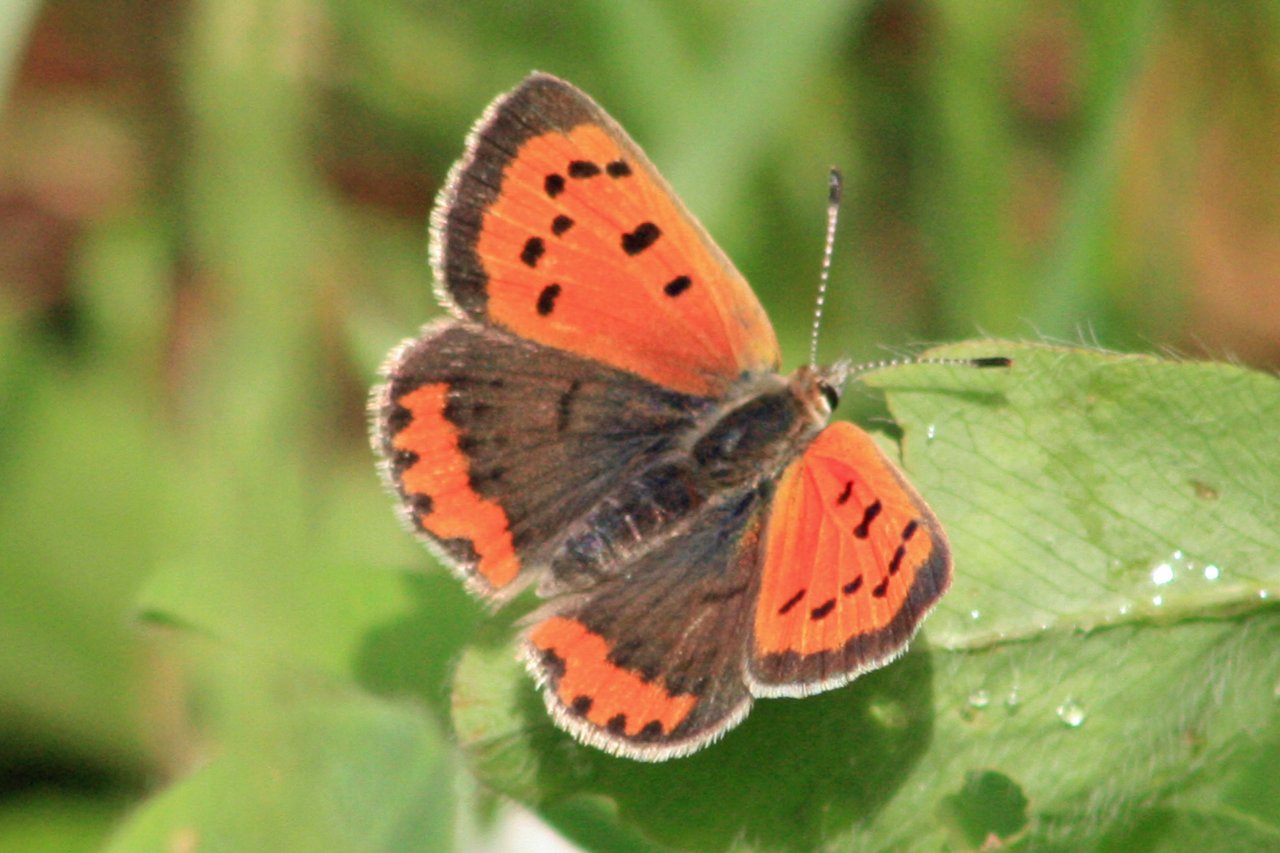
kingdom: Animalia
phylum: Arthropoda
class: Insecta
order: Lepidoptera
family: Lycaenidae
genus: Lycaena
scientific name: Lycaena phlaeas
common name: American Copper
